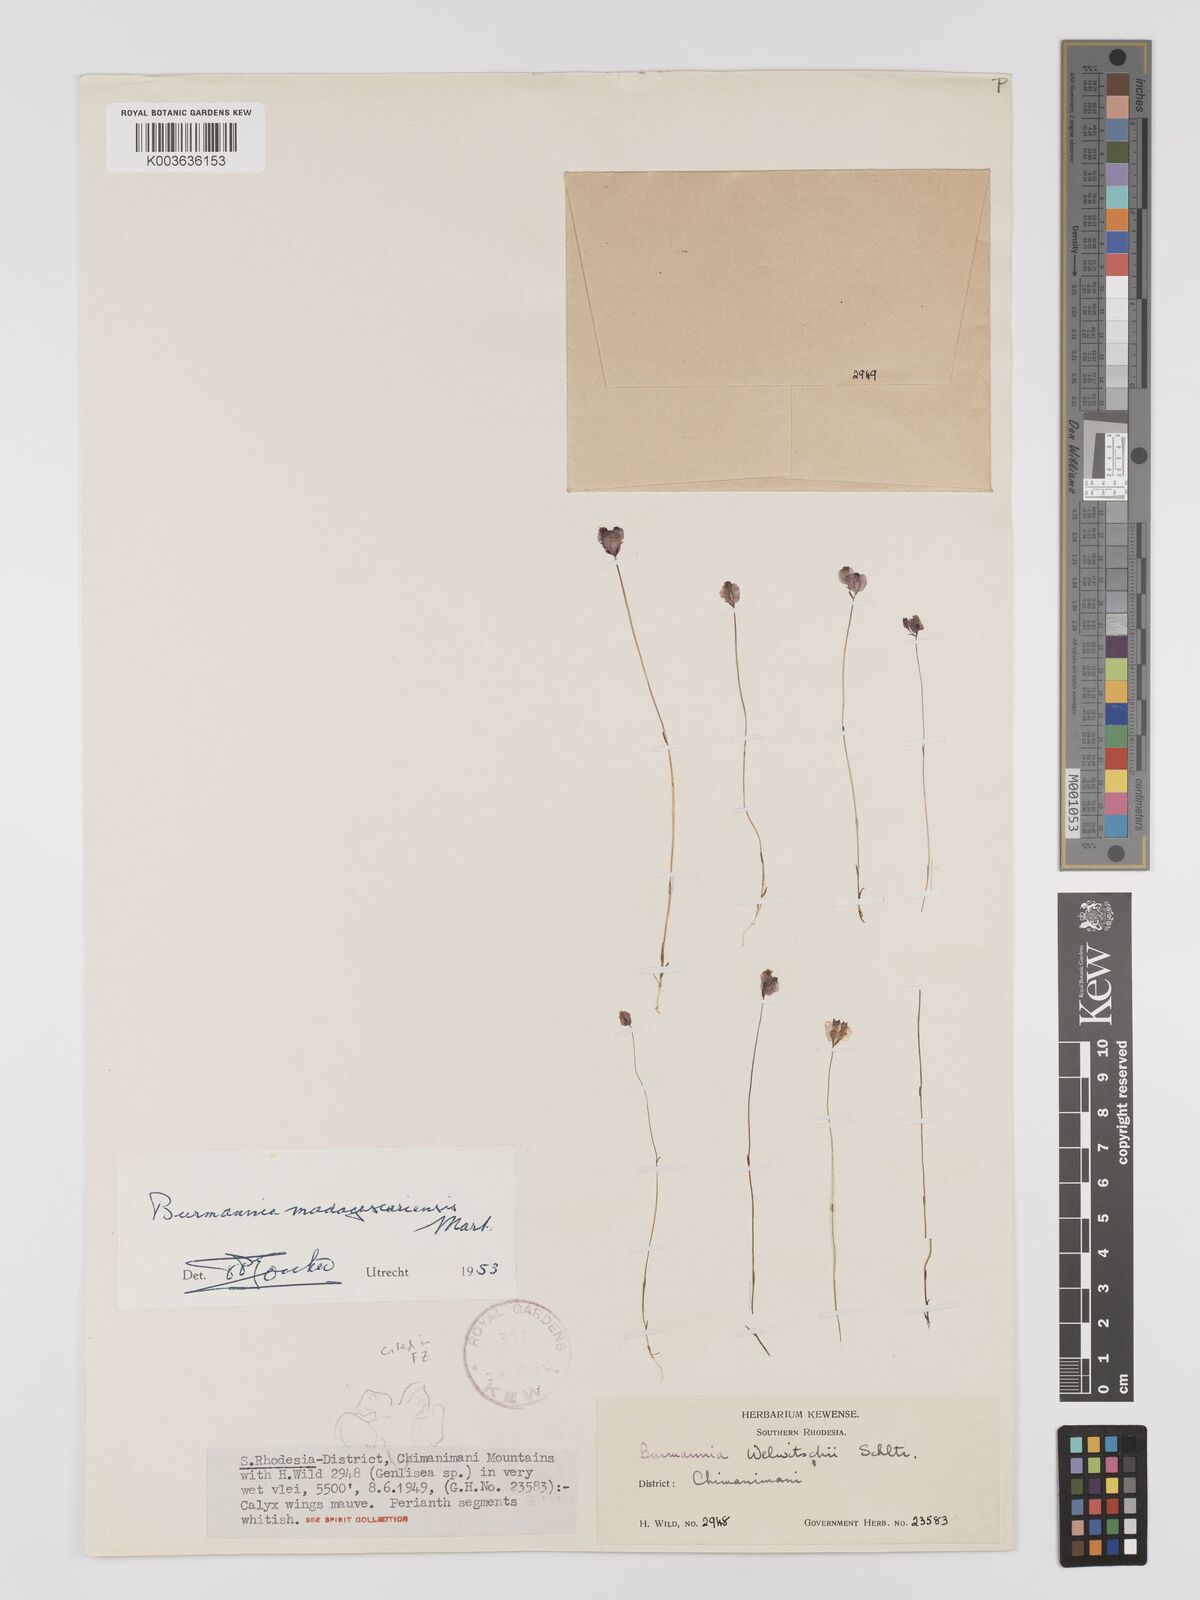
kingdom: Plantae
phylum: Tracheophyta
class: Liliopsida
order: Dioscoreales
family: Burmanniaceae
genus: Burmannia
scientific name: Burmannia madagascariensis
